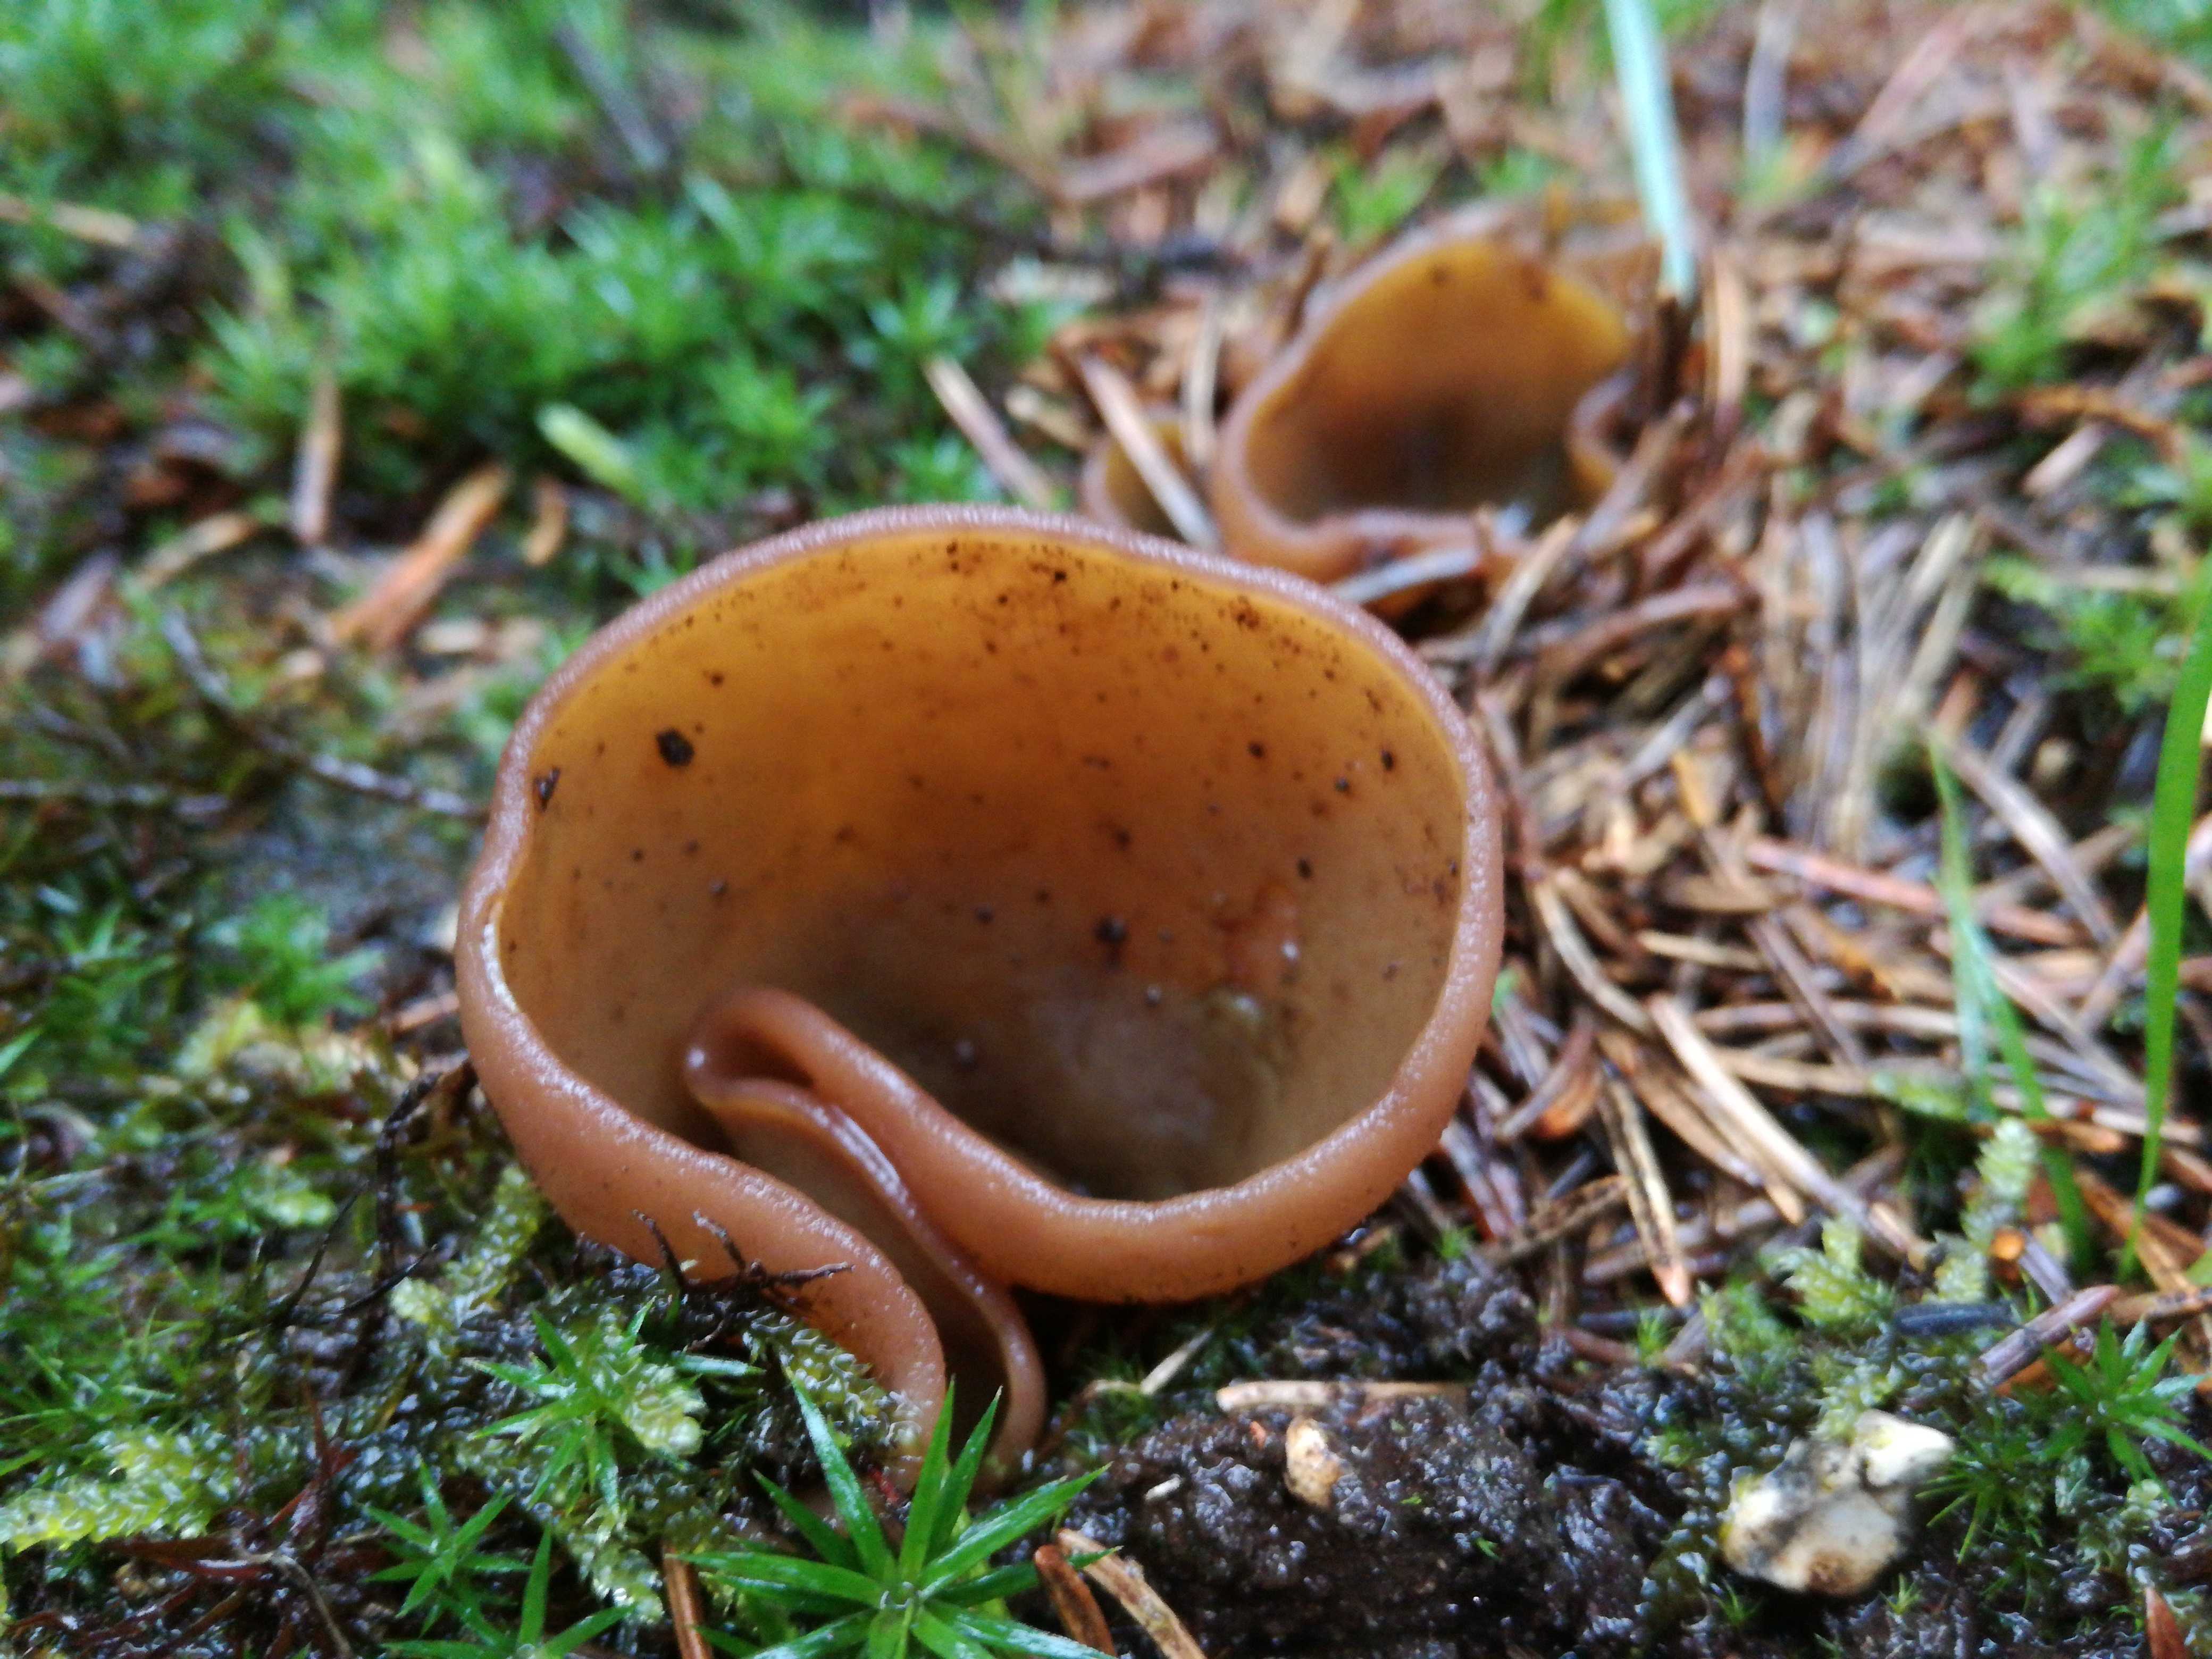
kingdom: Fungi
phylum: Ascomycota
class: Pezizomycetes
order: Pezizales
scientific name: Pezizales
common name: bægersvampordenen
